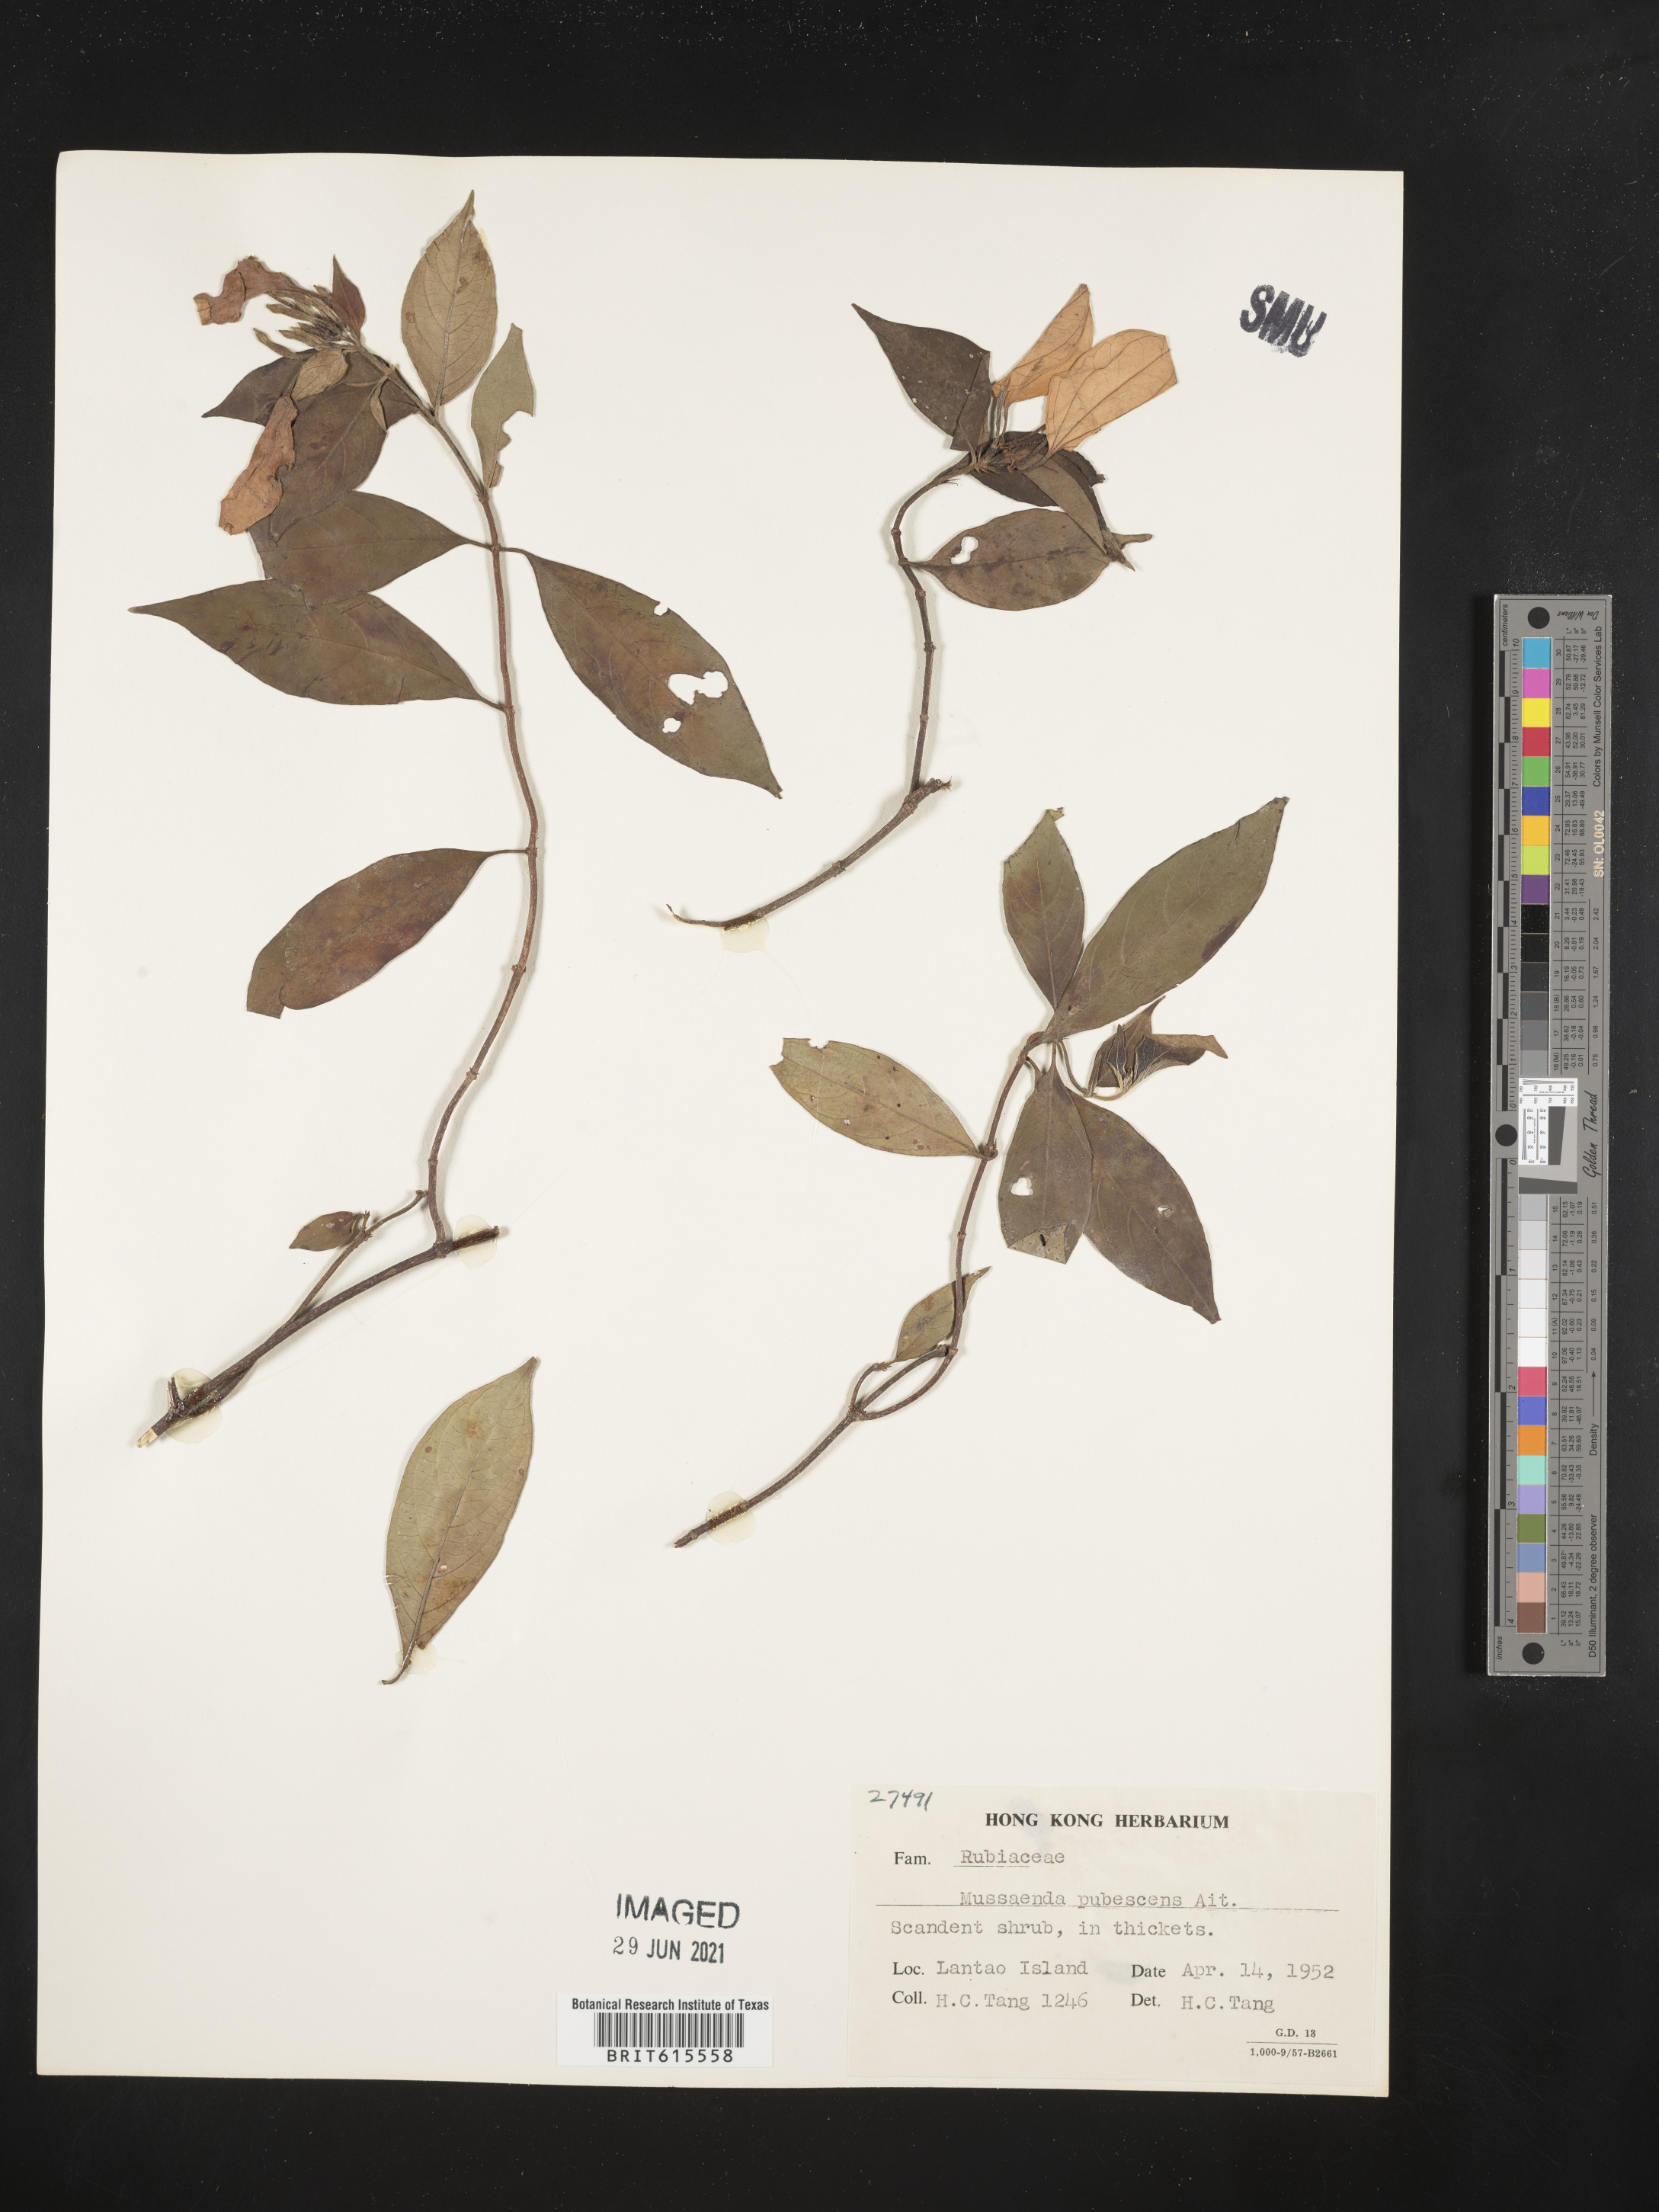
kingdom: Plantae
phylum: Tracheophyta
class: Magnoliopsida
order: Gentianales
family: Rubiaceae
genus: Mussaenda
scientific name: Mussaenda pubescens
